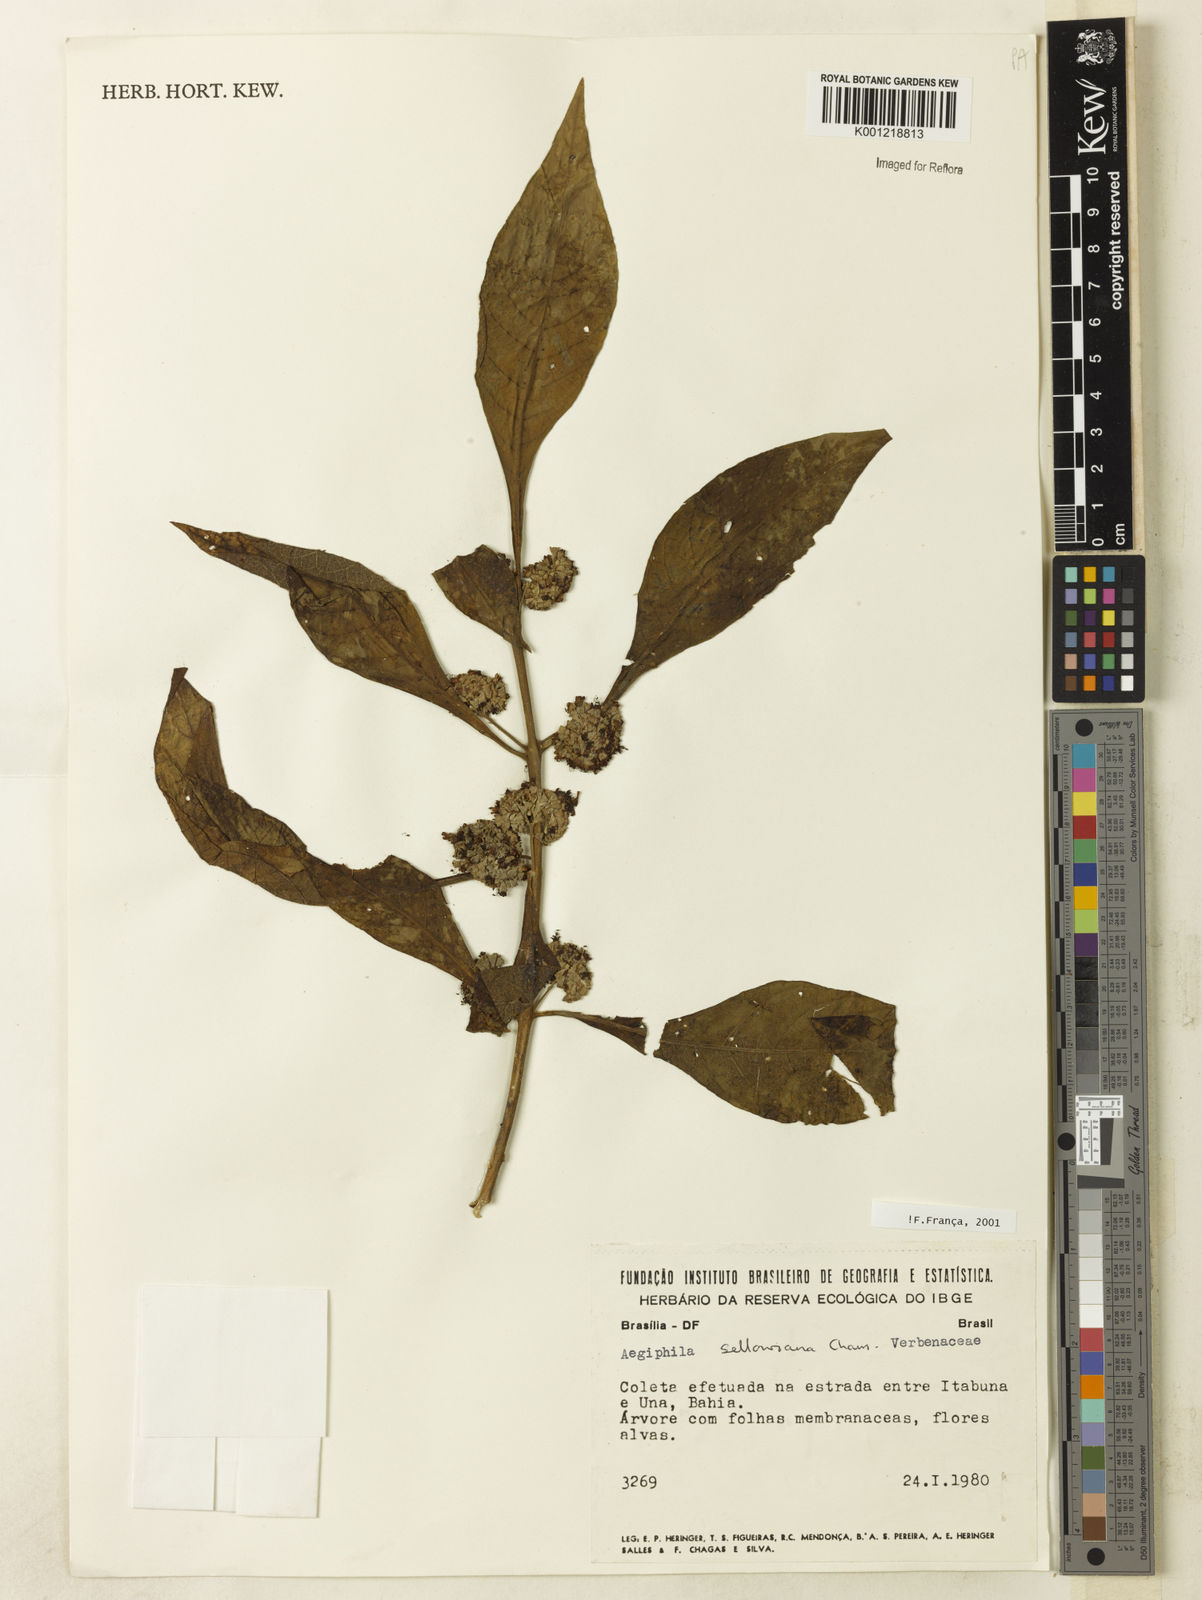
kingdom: Plantae
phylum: Tracheophyta
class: Magnoliopsida
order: Lamiales
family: Lamiaceae
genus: Aegiphila
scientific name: Aegiphila verticillata
